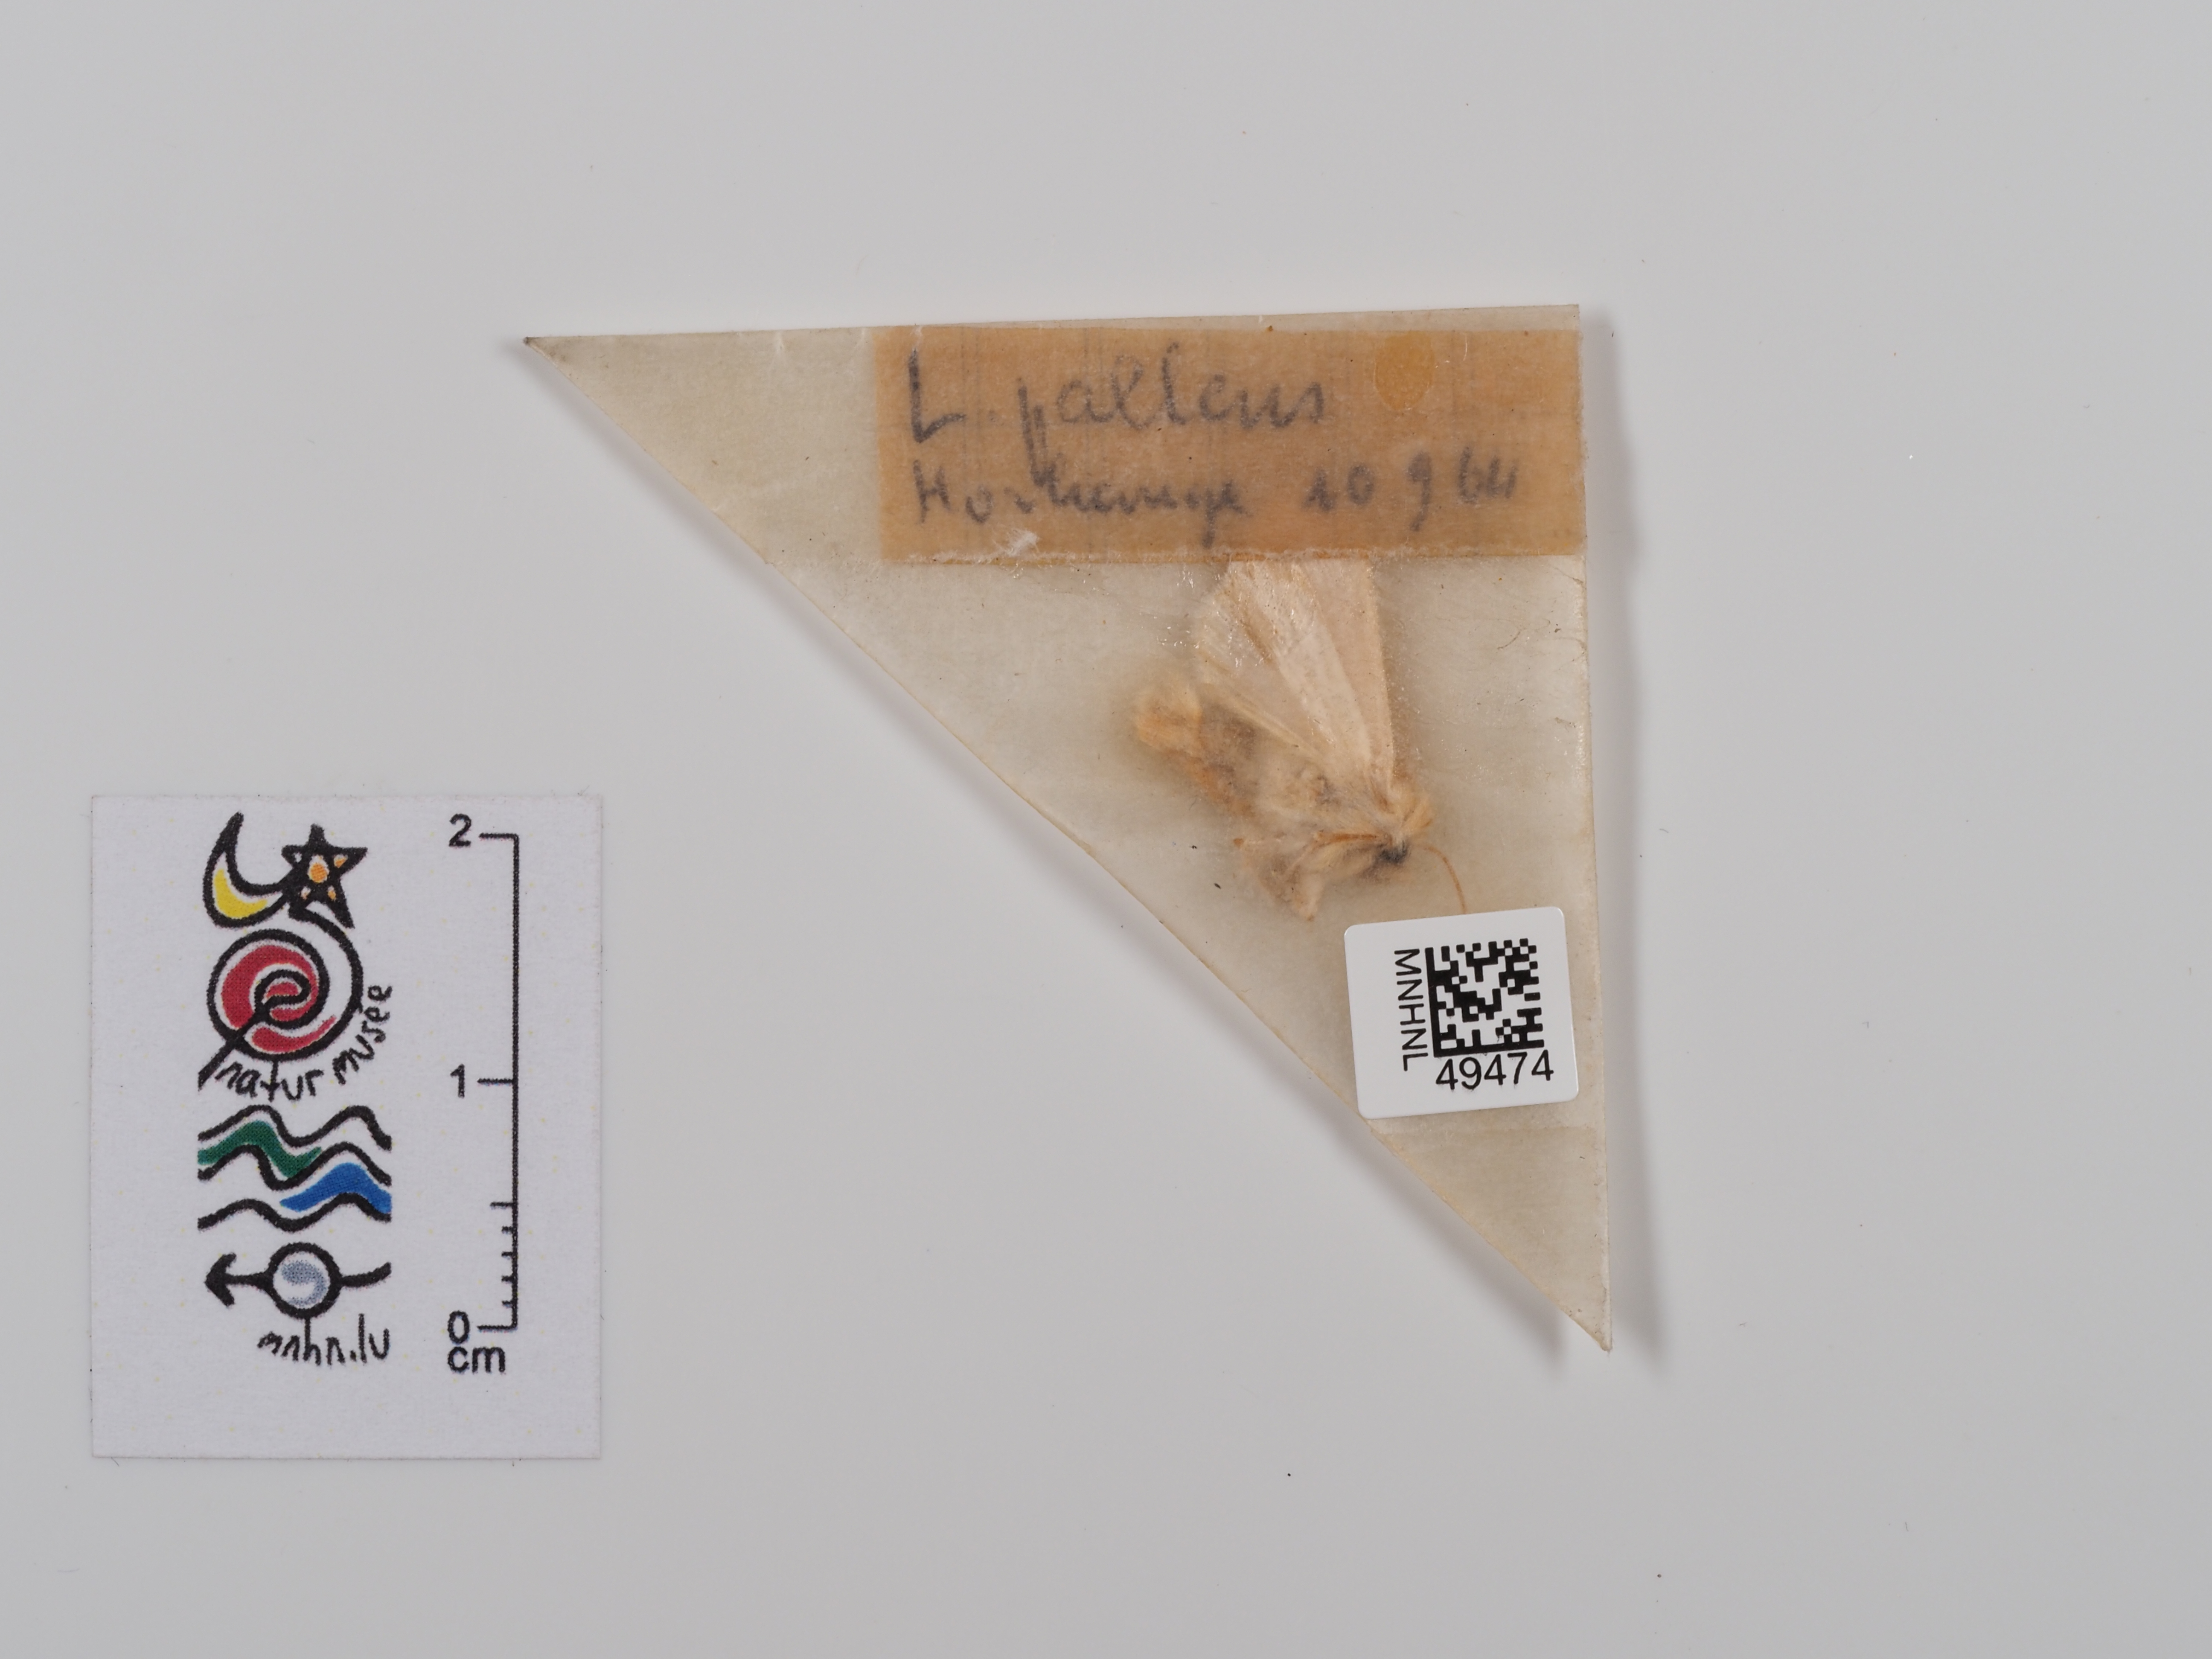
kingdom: Animalia
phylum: Arthropoda
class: Insecta
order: Lepidoptera
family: Noctuidae
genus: Mythimna
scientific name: Mythimna pallens
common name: Common wainscot
